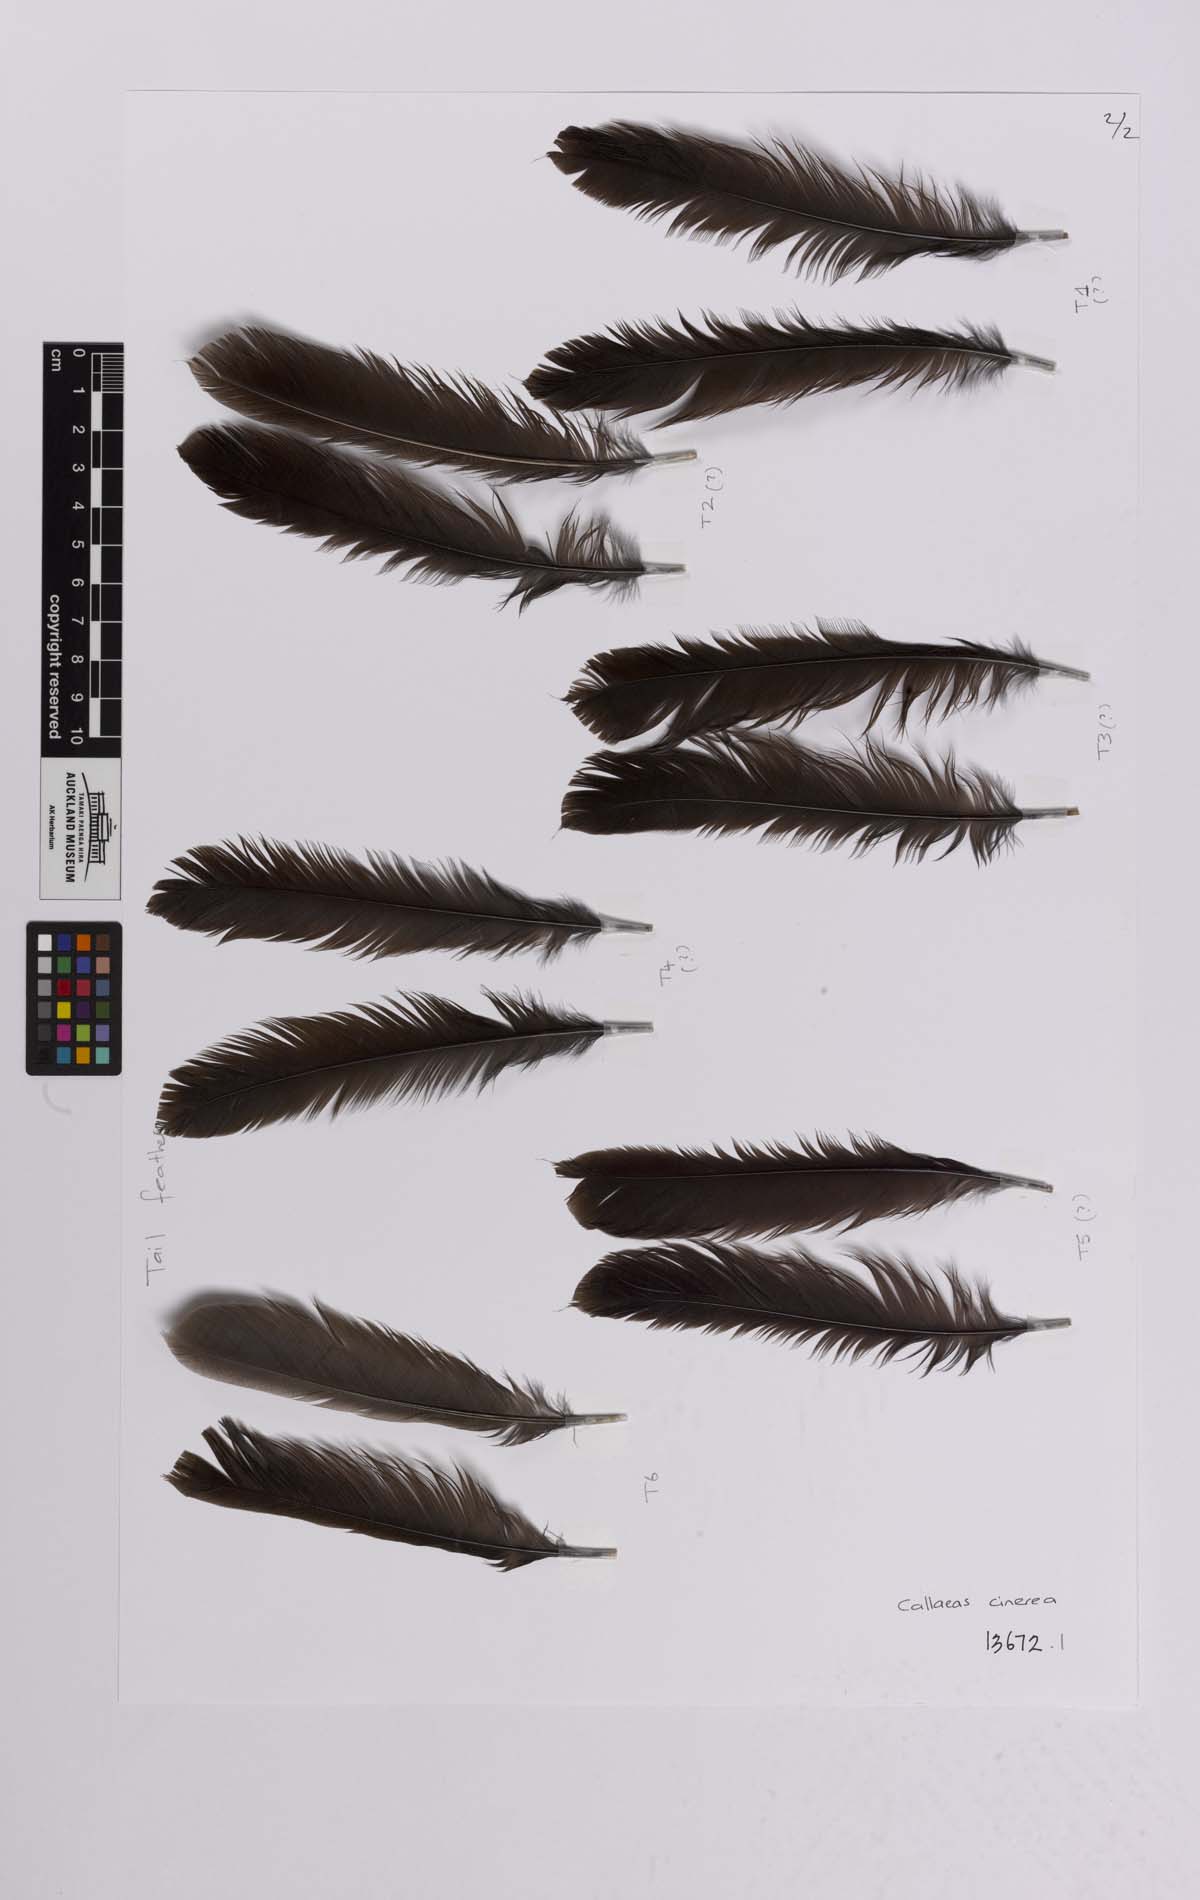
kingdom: Animalia
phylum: Chordata
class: Aves
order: Passeriformes
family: Callaeatidae
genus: Callaeas
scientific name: Callaeas cinereus
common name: South island kokako
